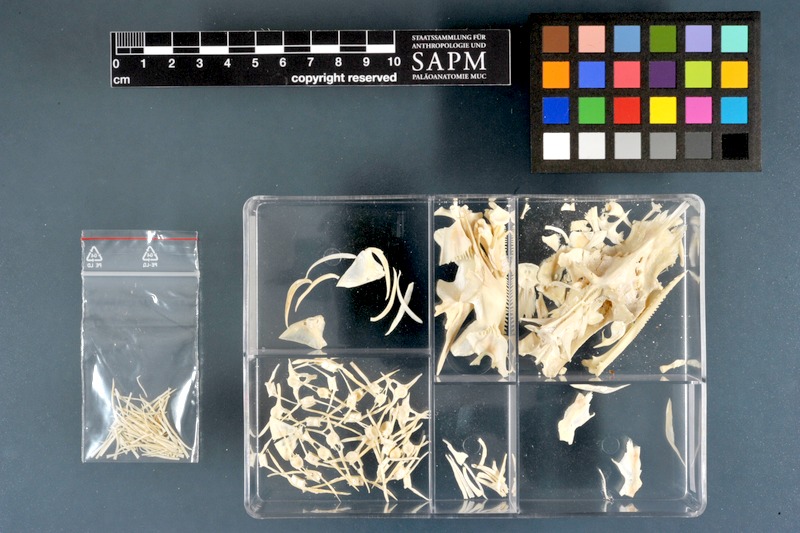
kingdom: Animalia
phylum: Chordata
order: Siluriformes
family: Mochokidae
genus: Synodontis
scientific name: Synodontis serratus
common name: Shield-head catfish
